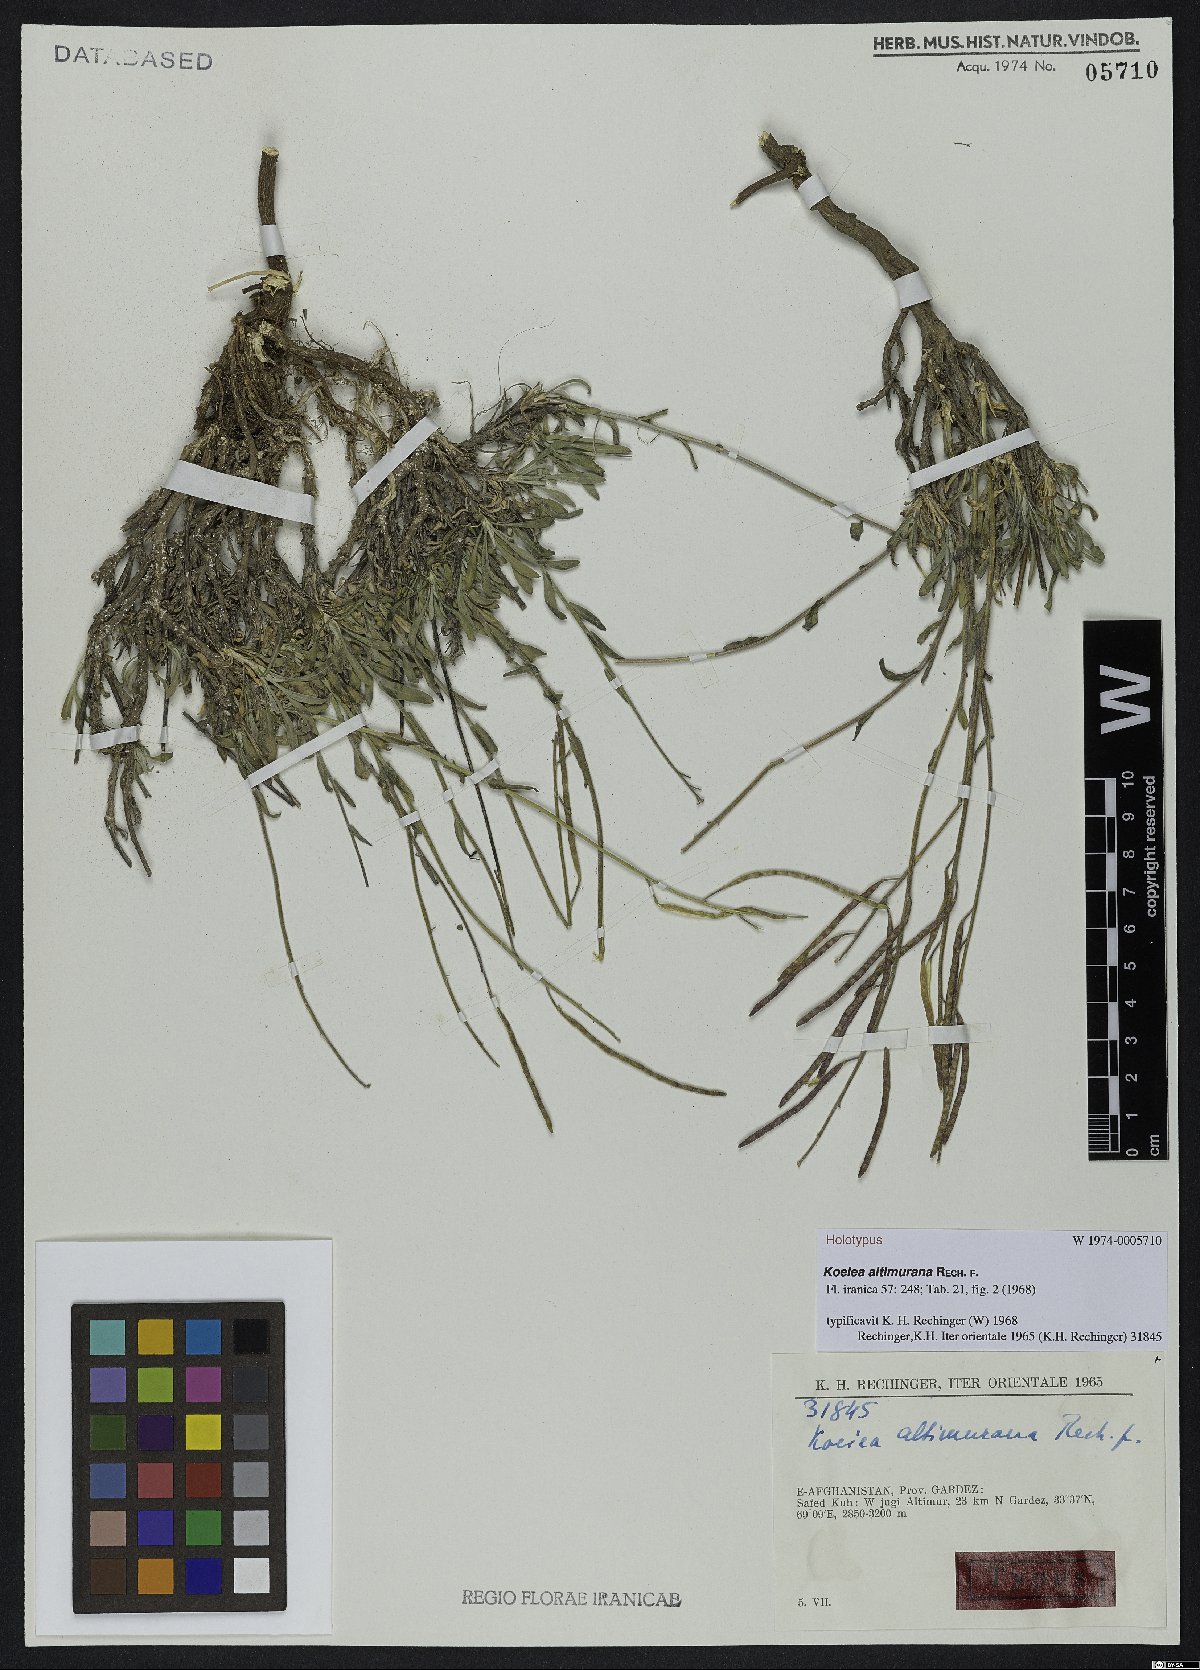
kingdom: Plantae
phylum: Tracheophyta
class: Magnoliopsida
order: Brassicales
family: Brassicaceae
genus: Dendroarabis
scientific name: Dendroarabis fruticulosa
